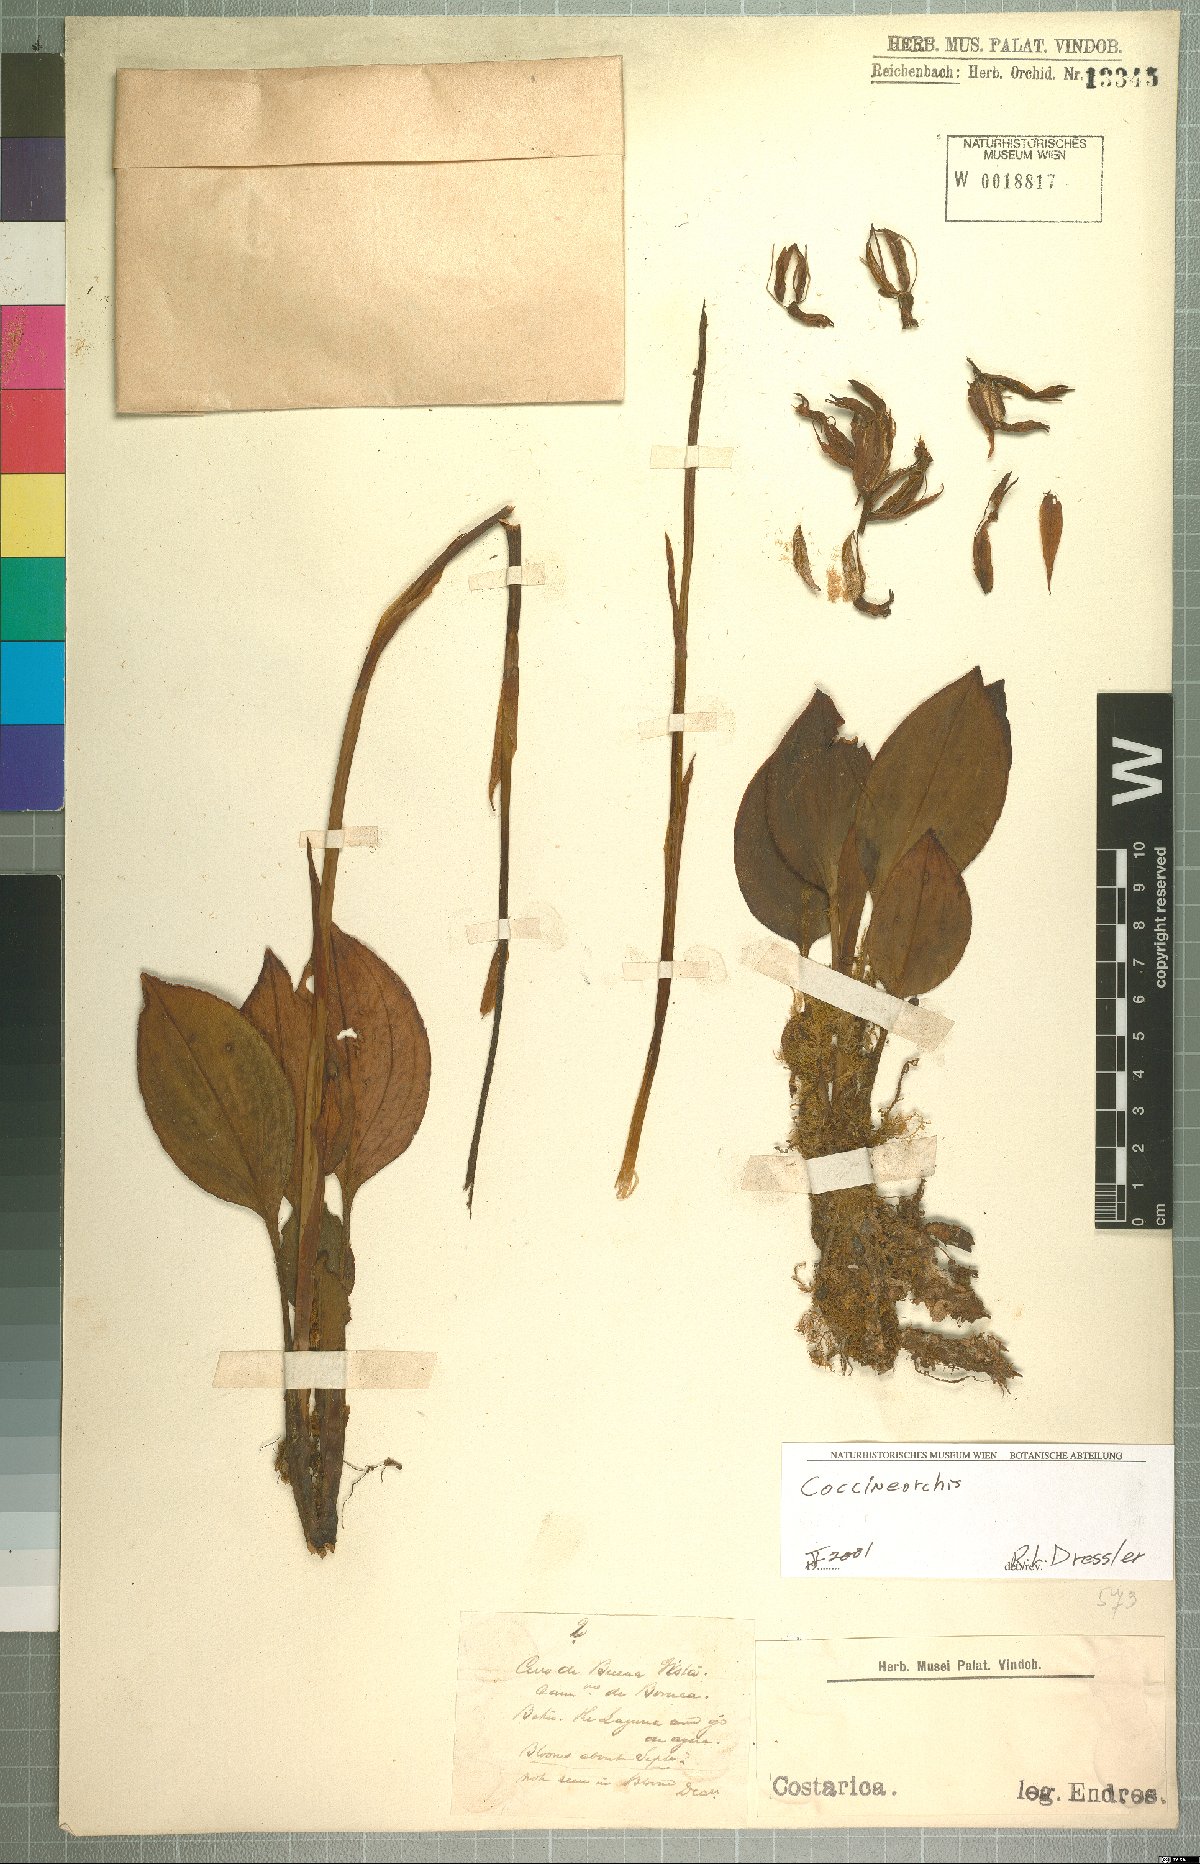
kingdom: Plantae
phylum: Tracheophyta
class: Liliopsida
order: Asparagales
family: Orchidaceae
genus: Coccineorchis
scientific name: Coccineorchis
